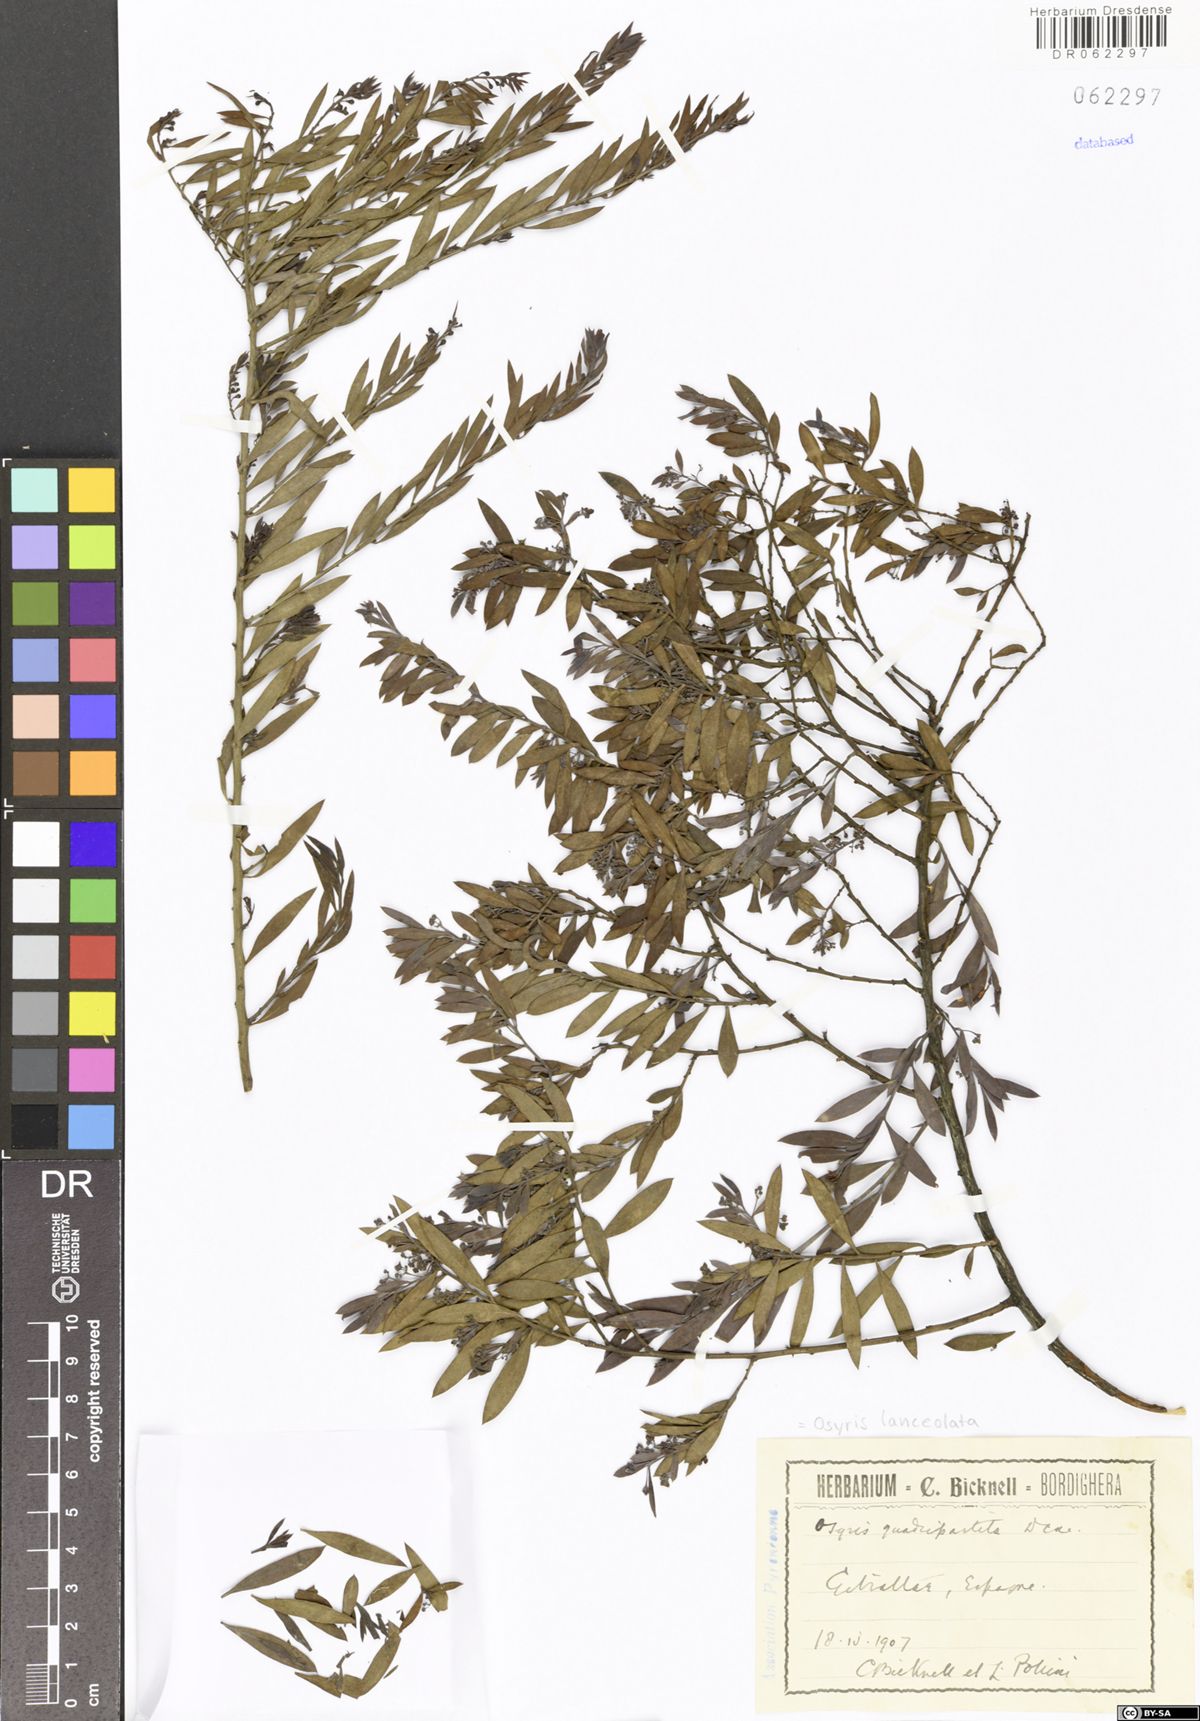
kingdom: Plantae
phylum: Tracheophyta
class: Magnoliopsida
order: Santalales
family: Santalaceae
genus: Osyris
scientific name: Osyris lanceolata
